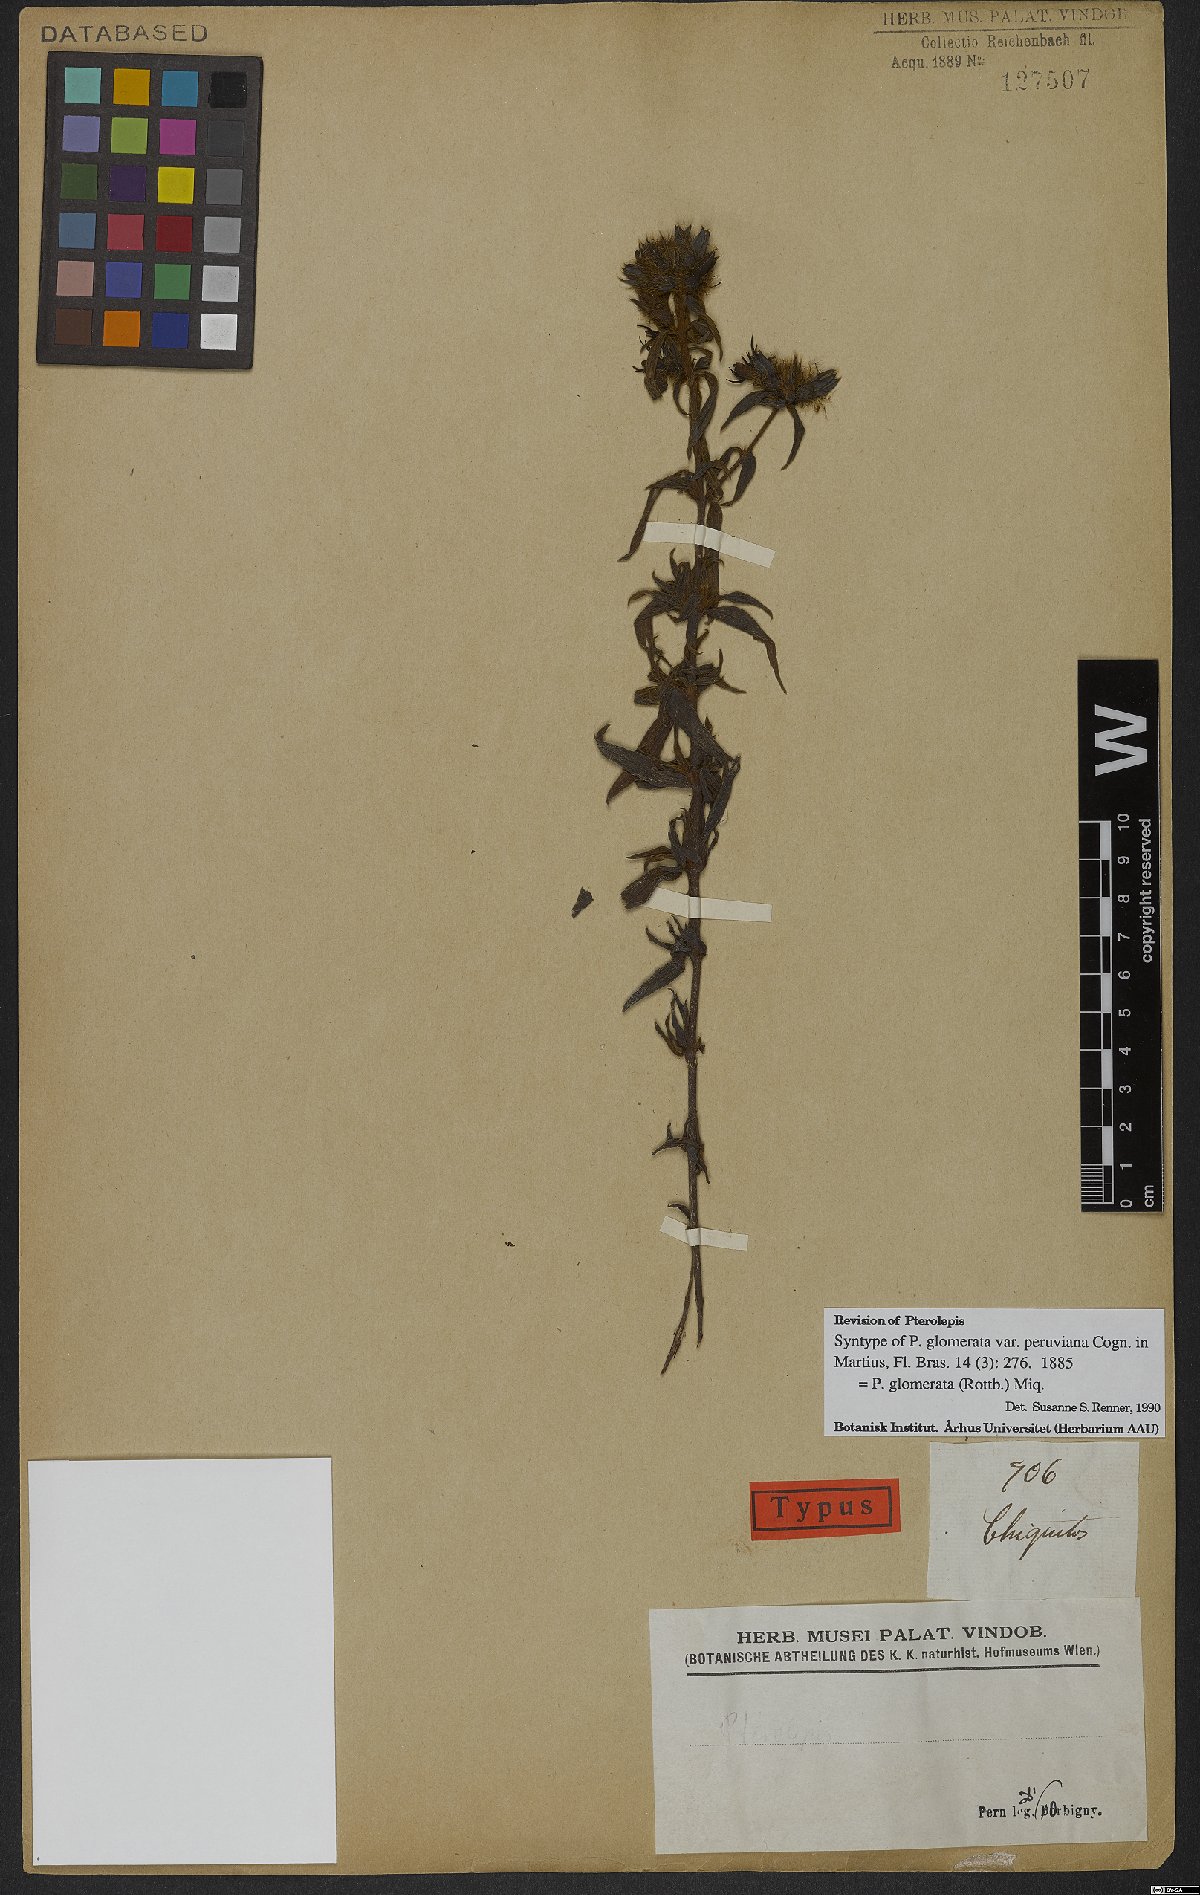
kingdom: Plantae
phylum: Tracheophyta
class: Magnoliopsida
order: Myrtales
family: Melastomataceae
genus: Pterolepis
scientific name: Pterolepis glomerata
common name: False meadowbeauty
